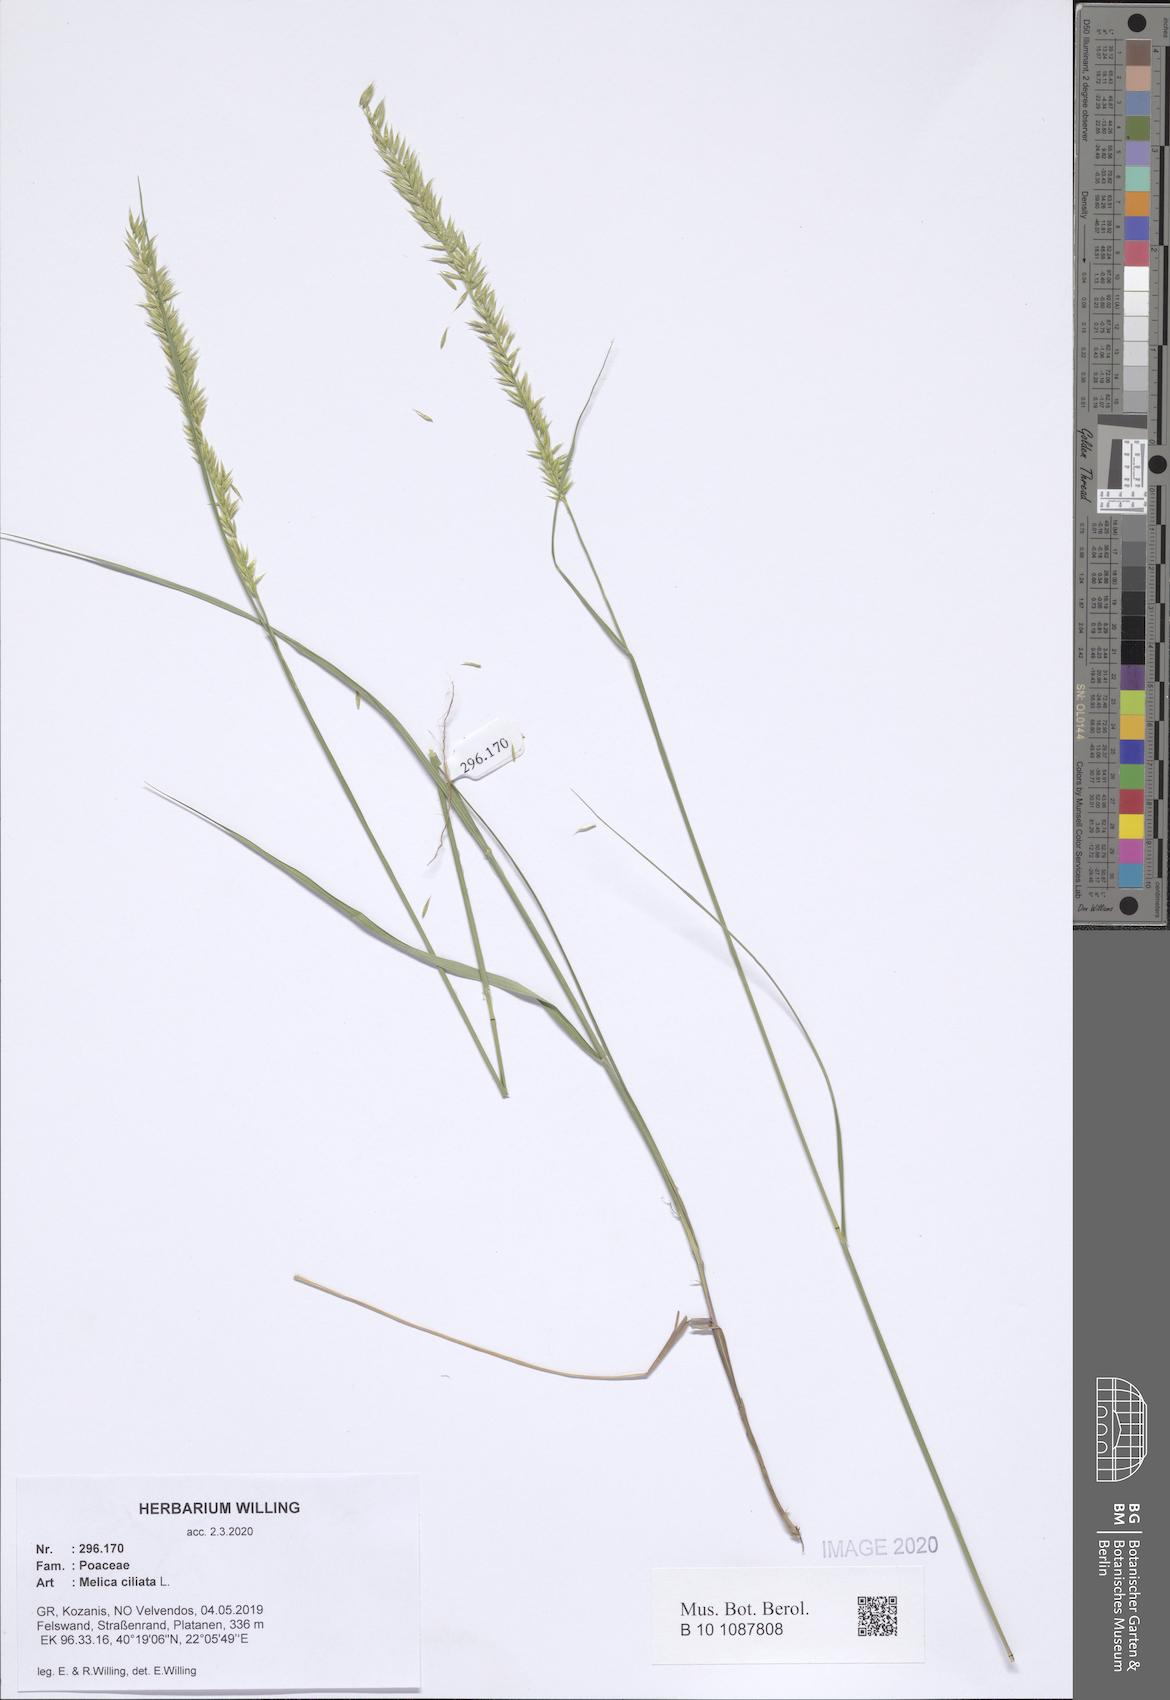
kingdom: Plantae
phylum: Tracheophyta
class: Liliopsida
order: Poales
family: Poaceae
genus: Melica
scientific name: Melica ciliata
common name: Hairy melicgrass
